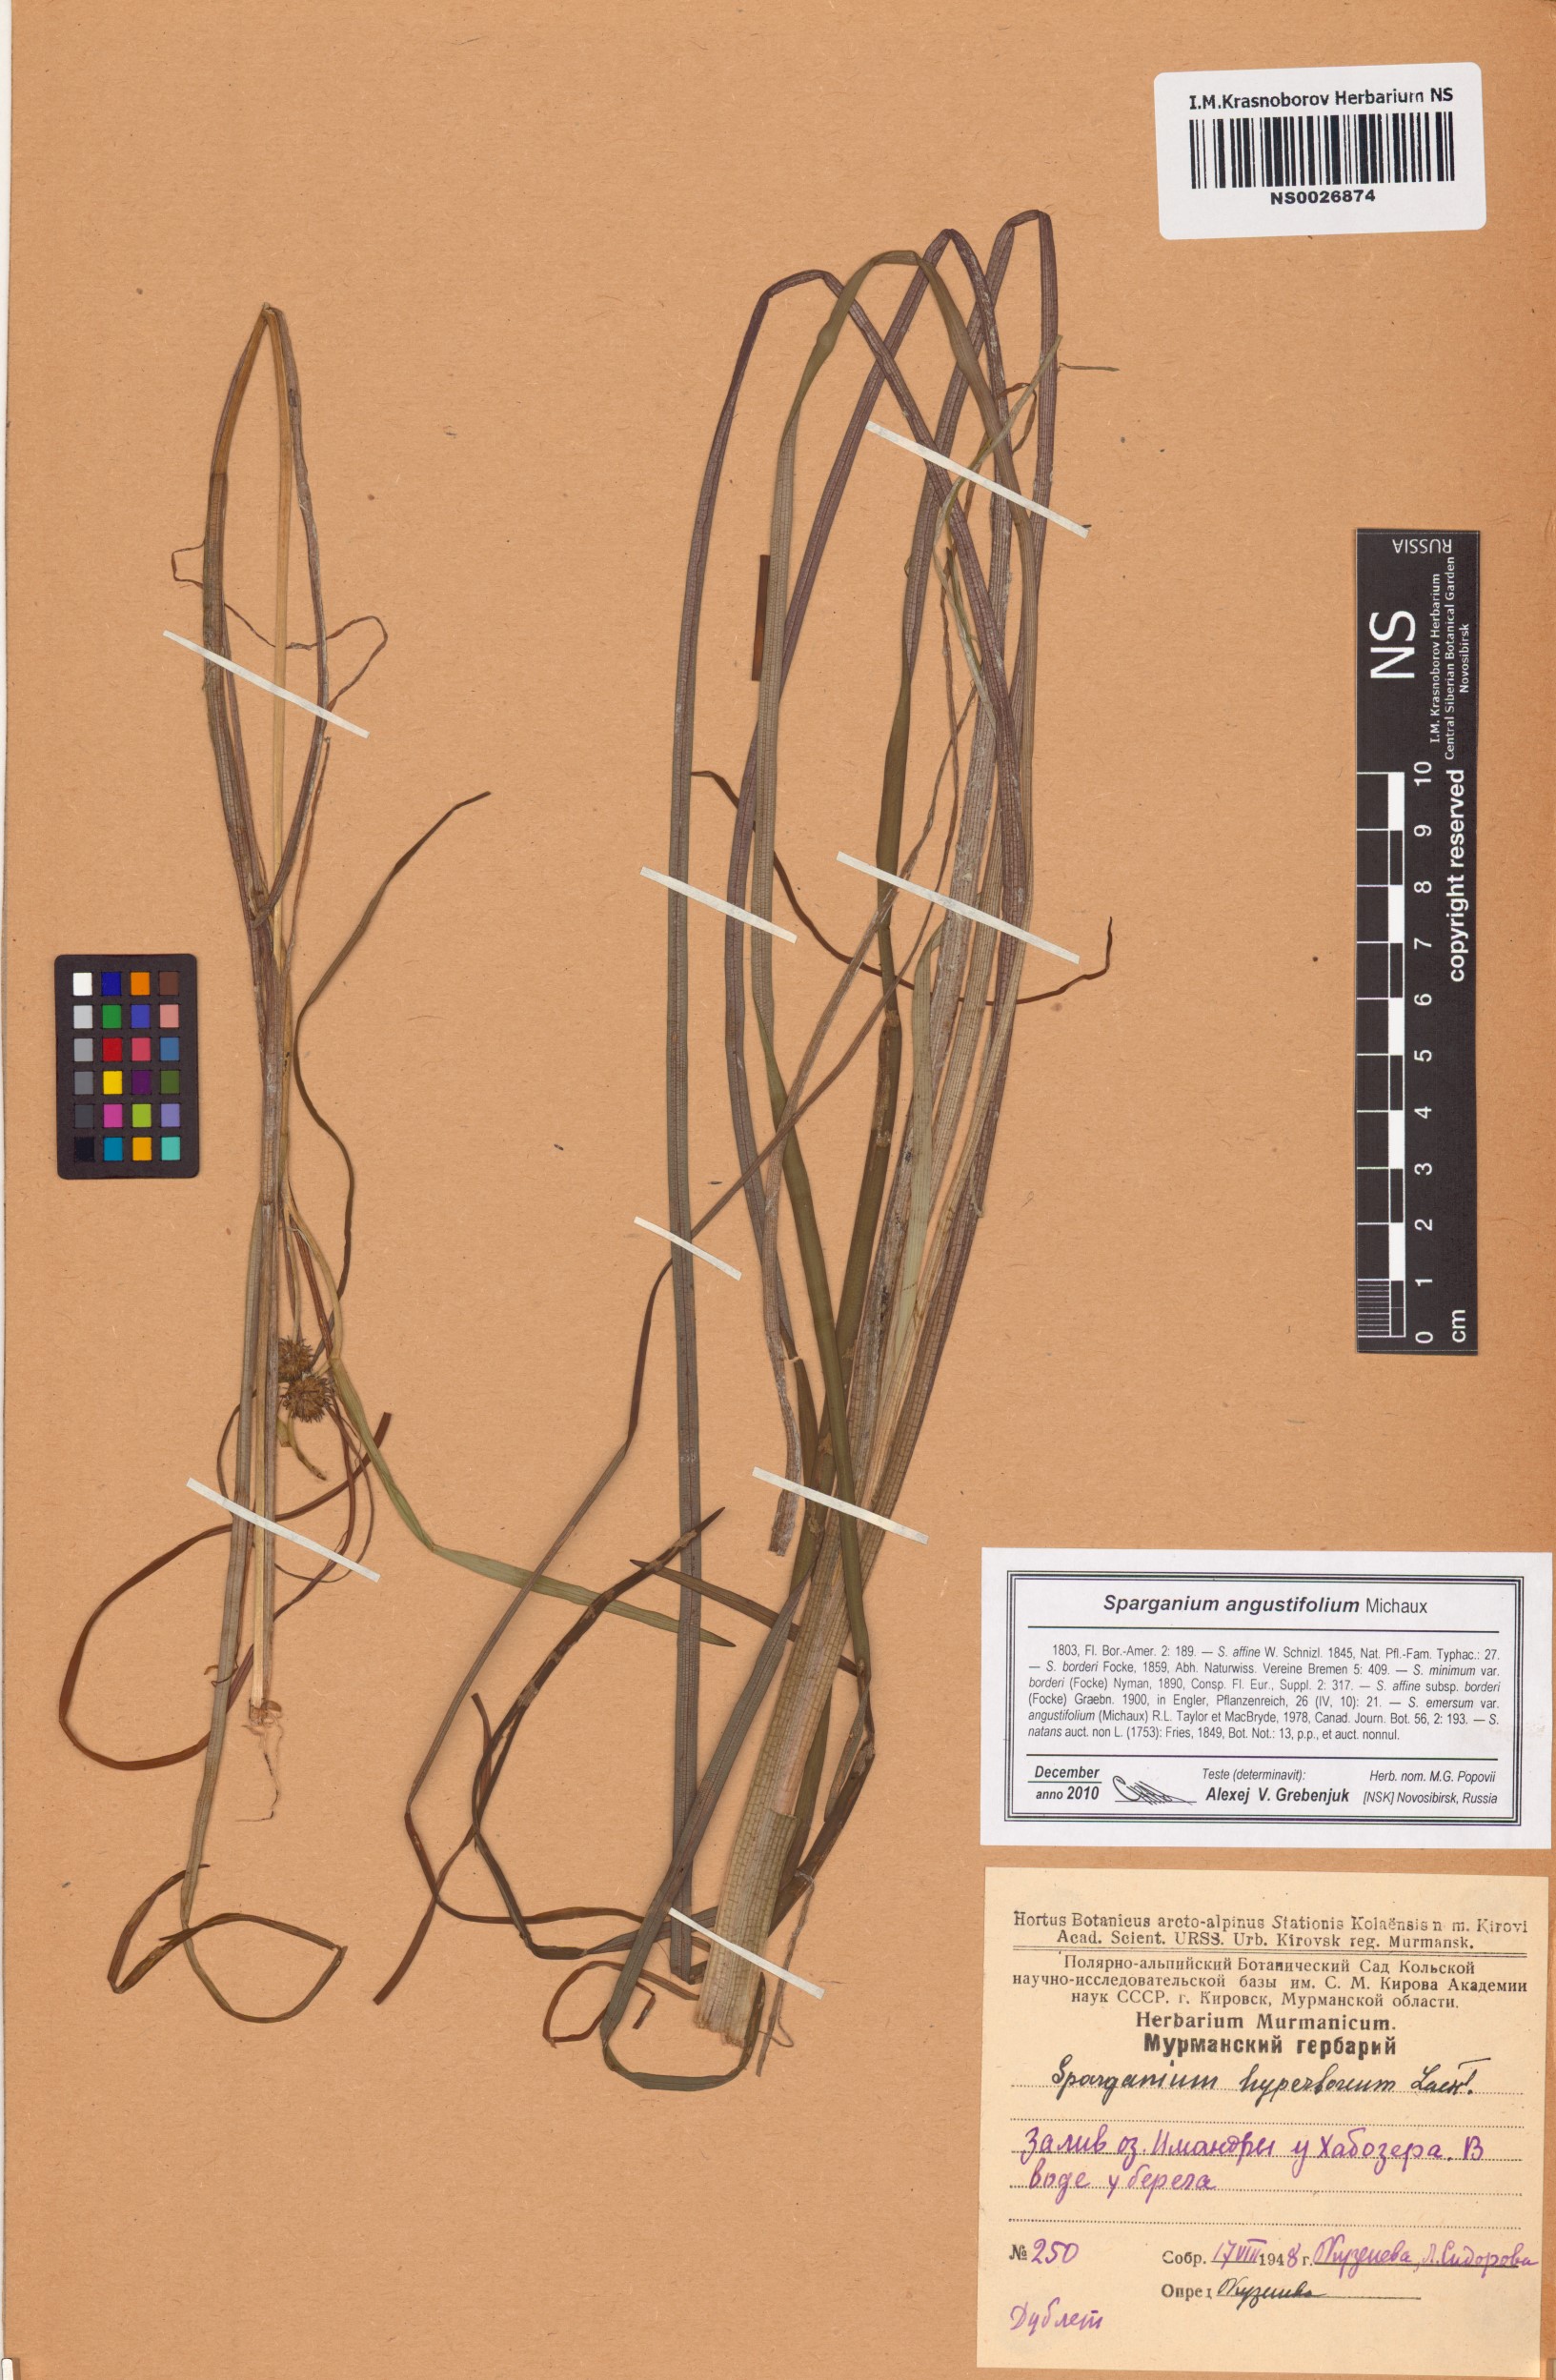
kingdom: Plantae
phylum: Tracheophyta
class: Liliopsida
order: Poales
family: Typhaceae
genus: Sparganium
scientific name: Sparganium angustifolium
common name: Floating bur-reed
